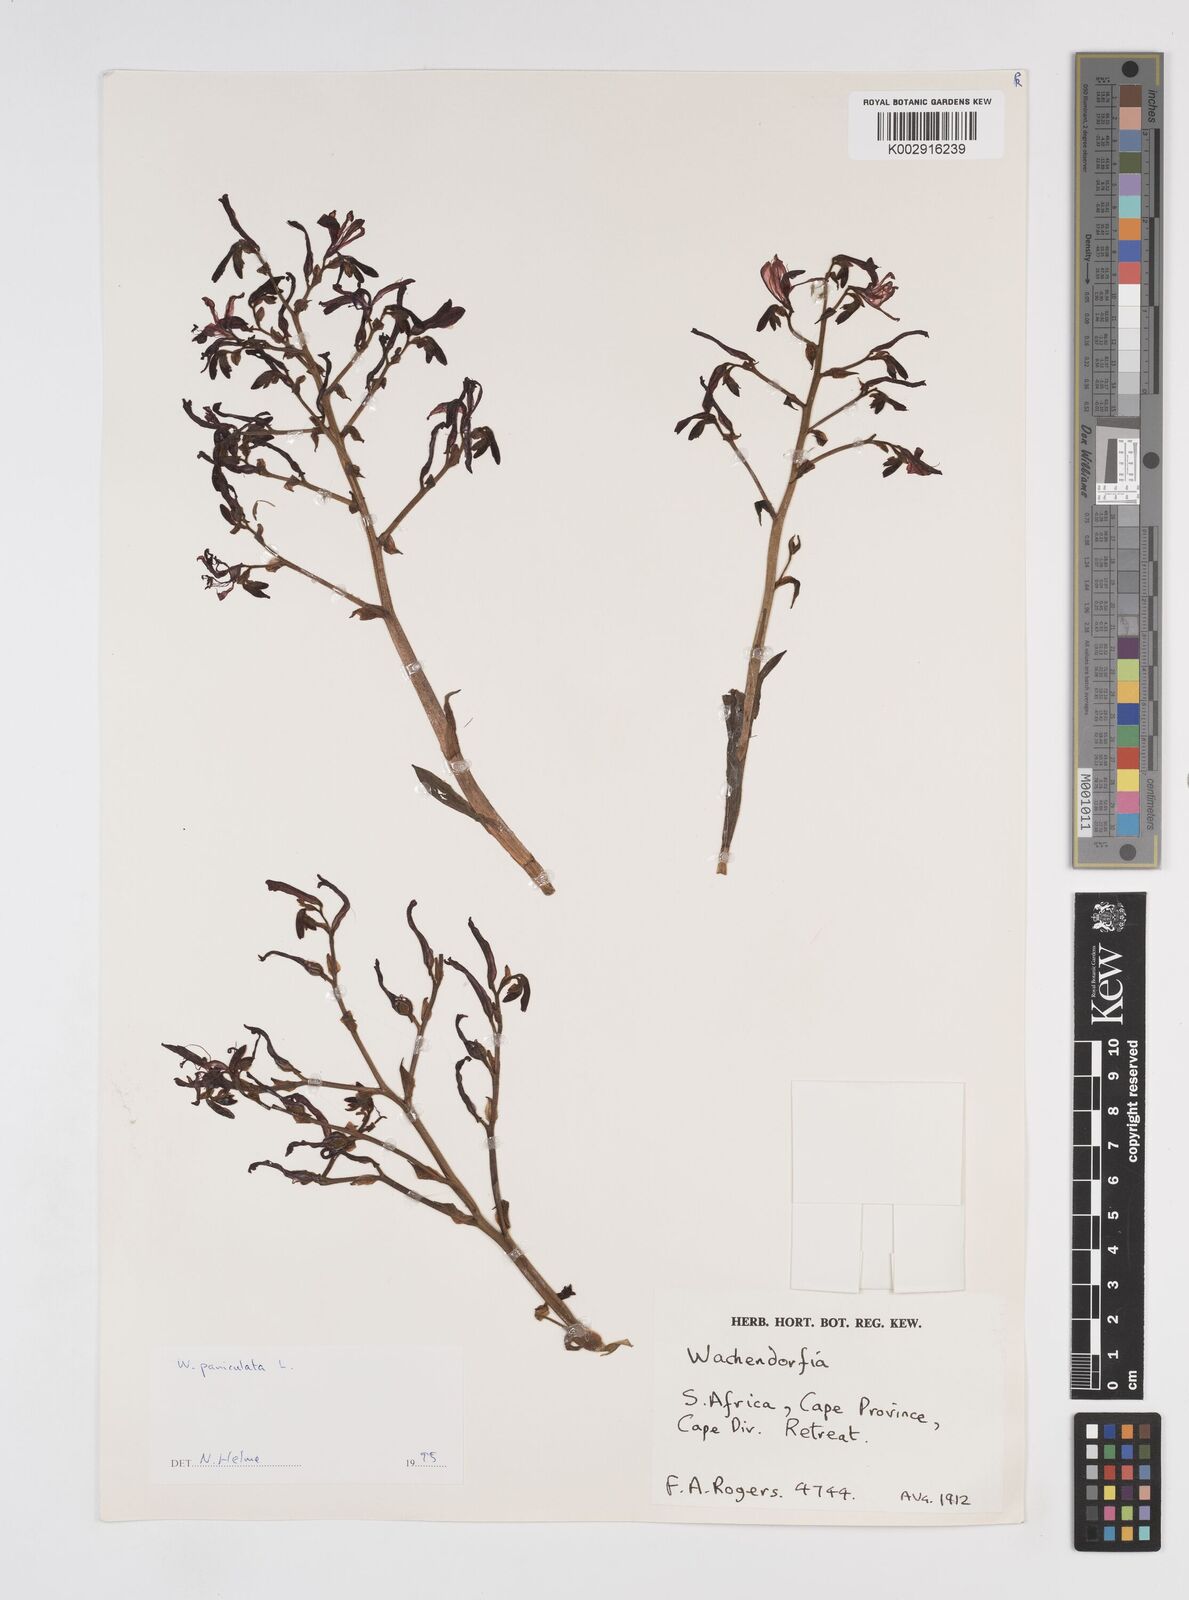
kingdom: Plantae
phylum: Tracheophyta
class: Liliopsida
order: Commelinales
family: Haemodoraceae
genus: Wachendorfia
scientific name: Wachendorfia paniculata
